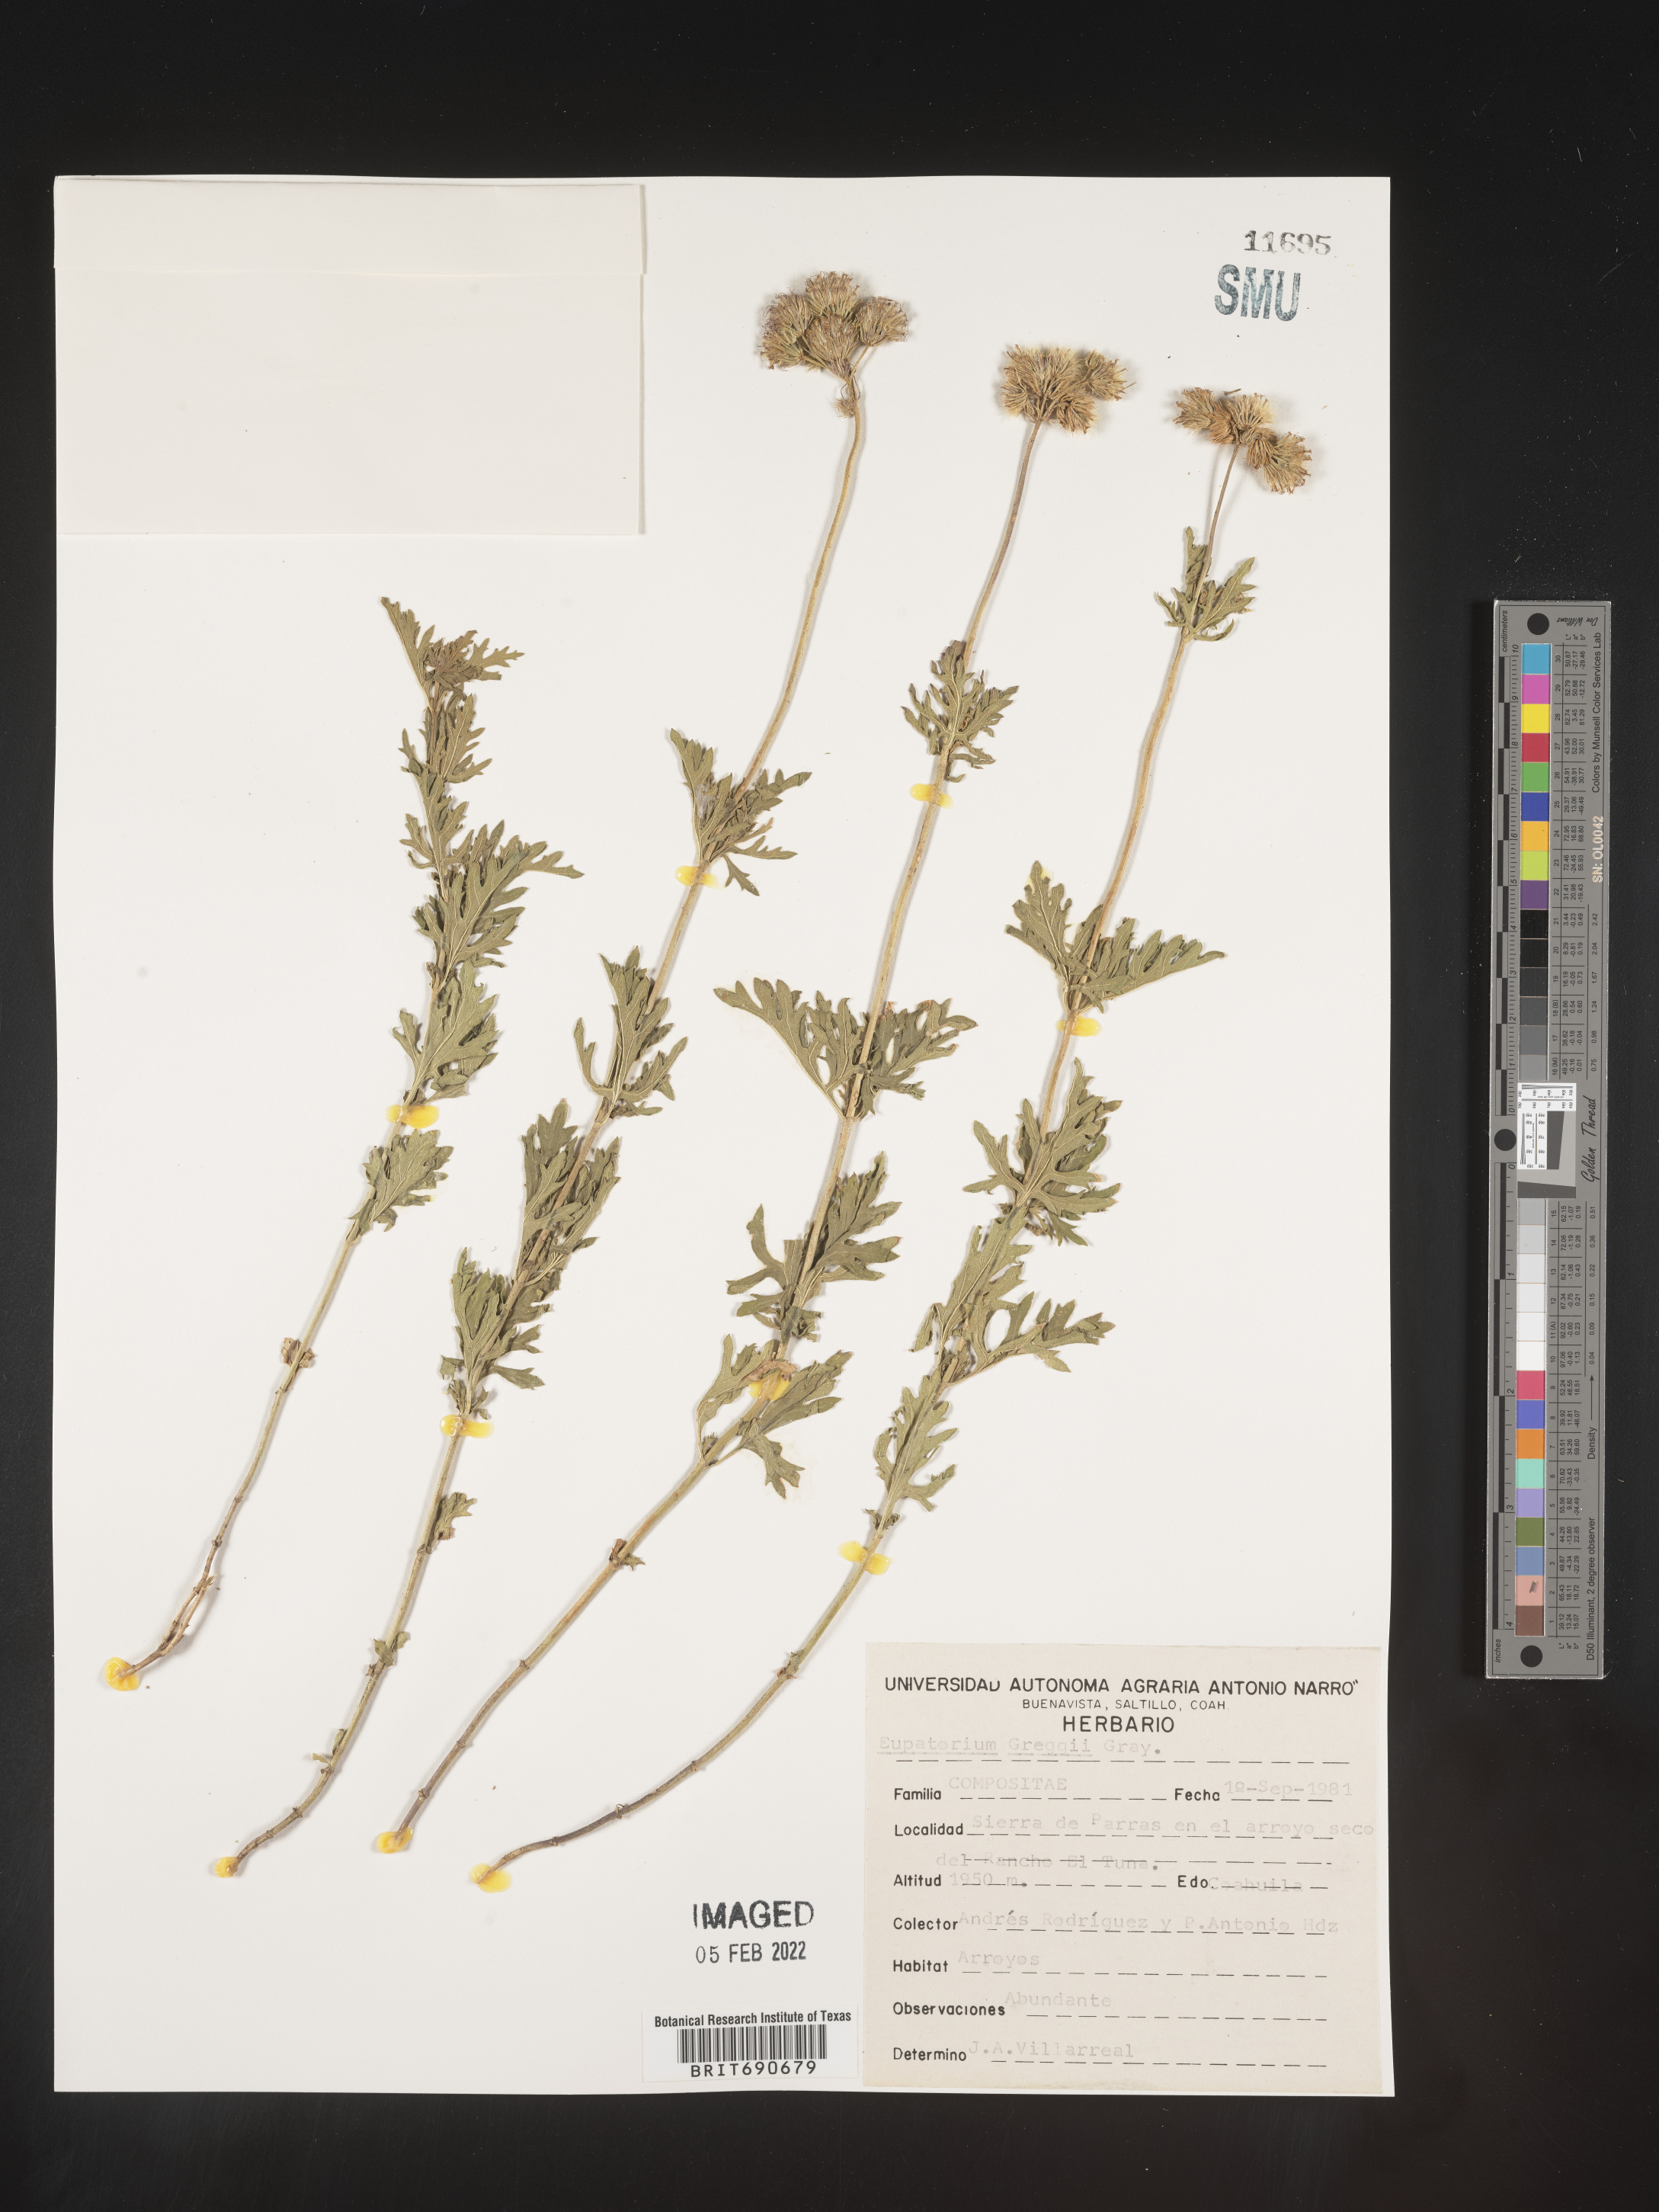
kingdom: Plantae
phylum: Tracheophyta
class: Magnoliopsida
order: Asterales
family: Asteraceae
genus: Conoclinium
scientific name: Conoclinium
